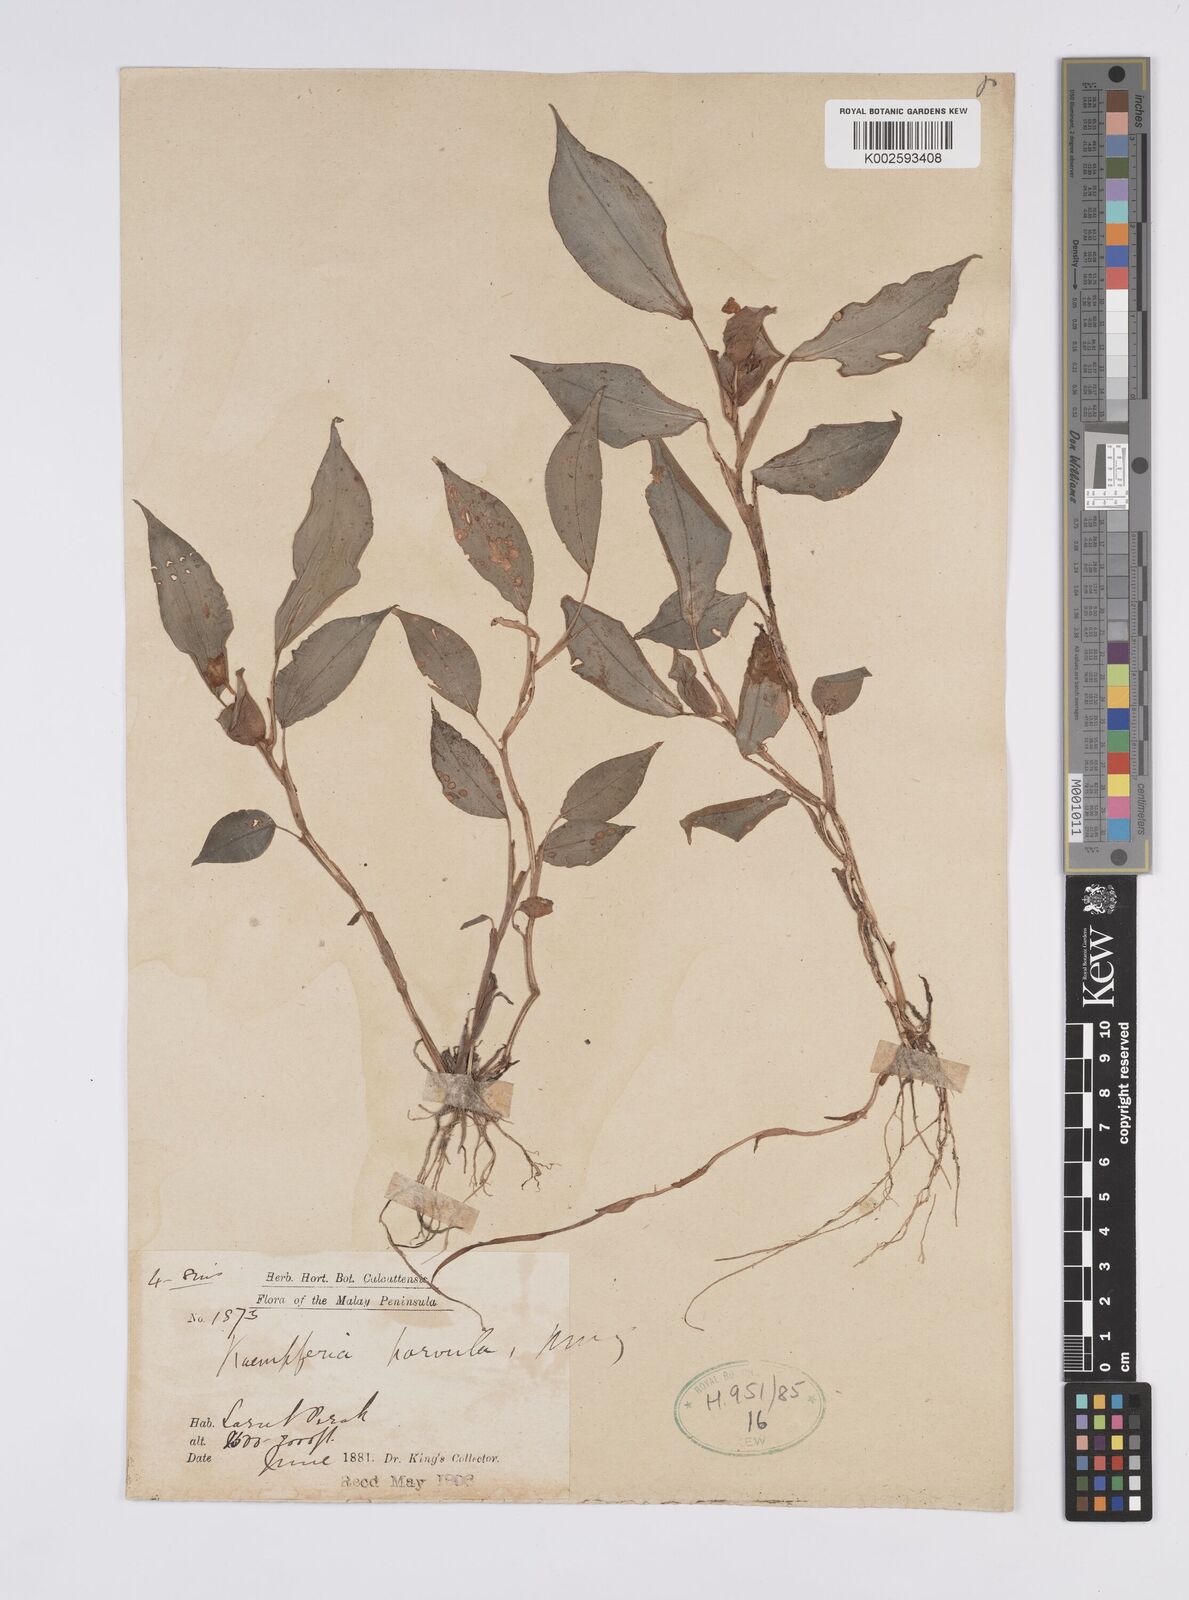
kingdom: Plantae
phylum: Tracheophyta
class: Liliopsida
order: Zingiberales
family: Zingiberaceae
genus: Camptandra
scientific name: Camptandra parvula
